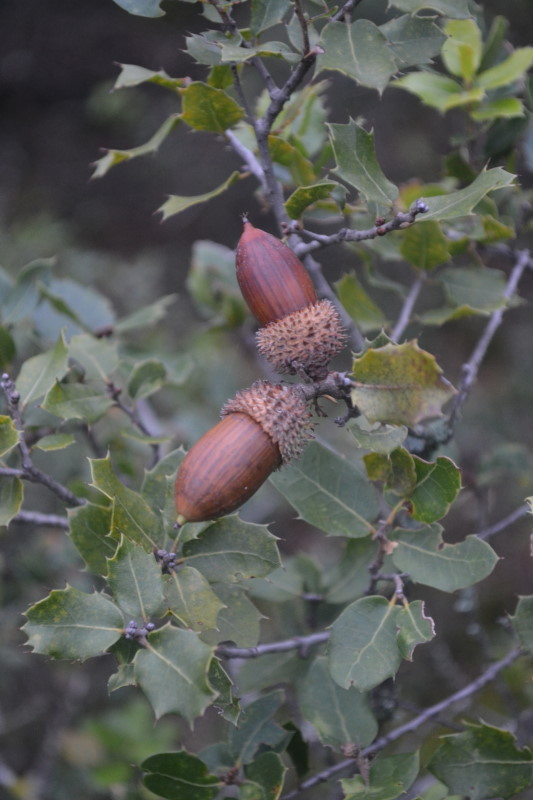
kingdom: Plantae
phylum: Tracheophyta
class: Magnoliopsida
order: Fagales
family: Fagaceae
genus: Quercus
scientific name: Quercus ilex
